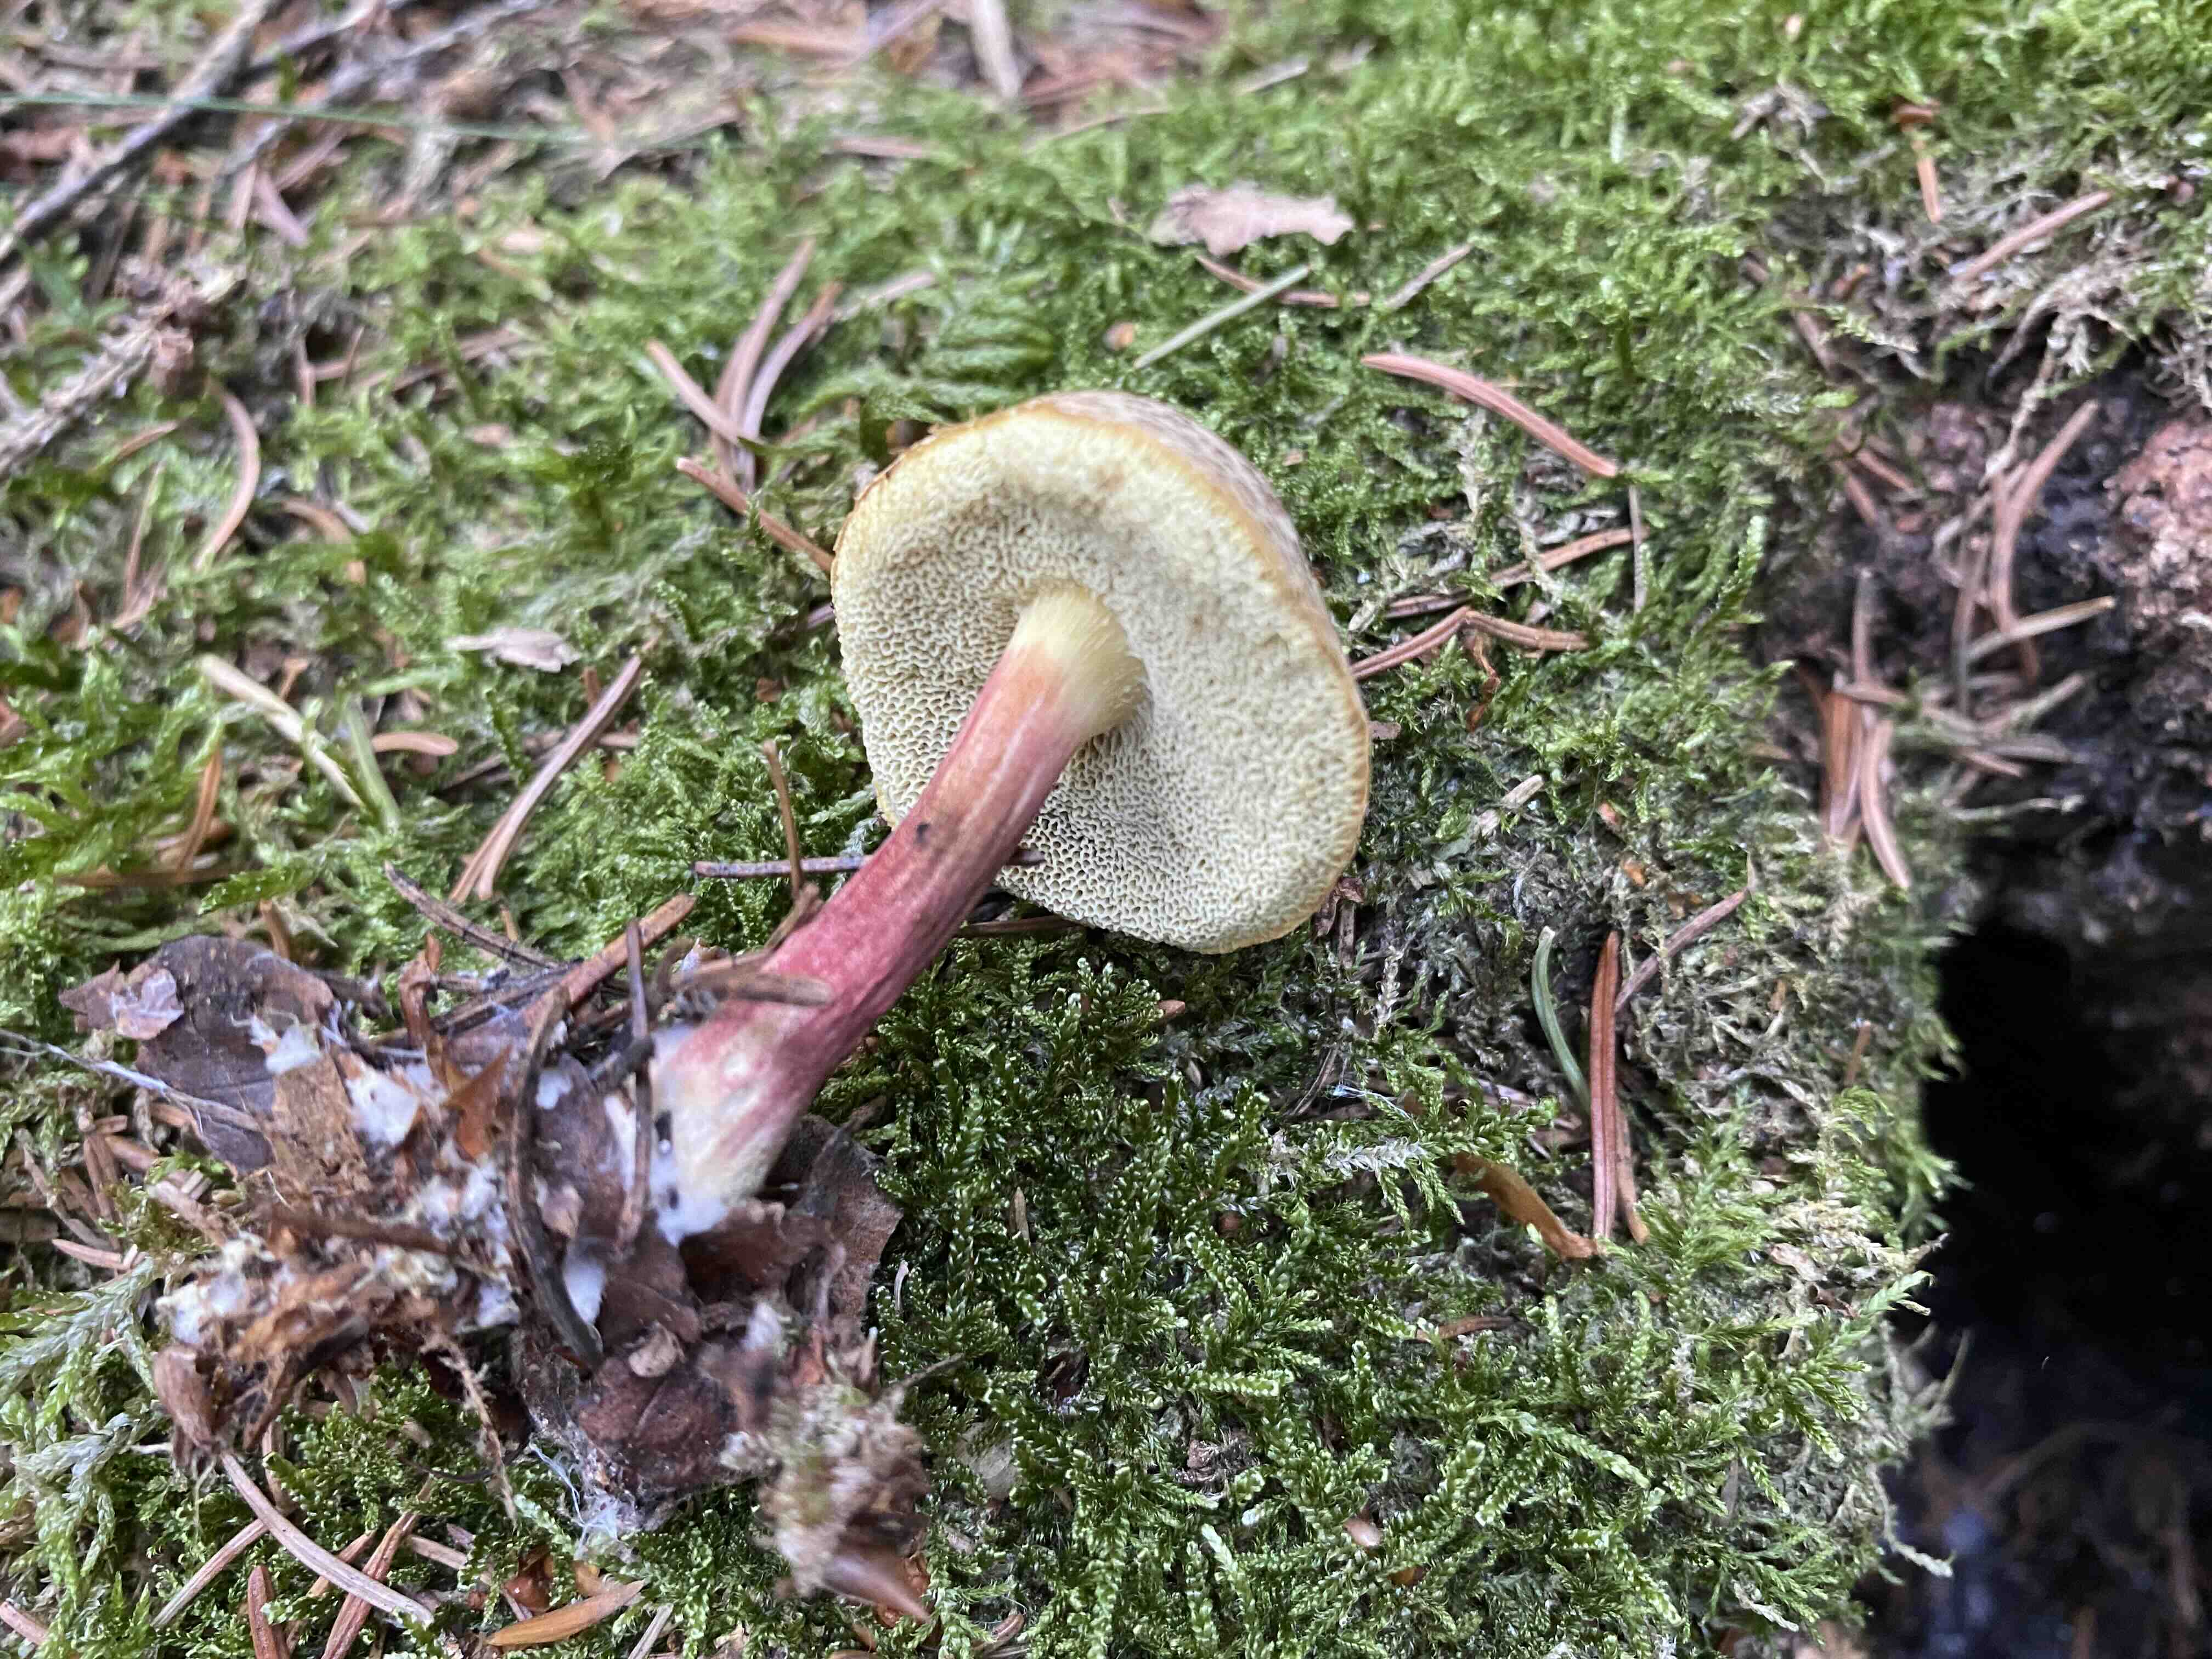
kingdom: Fungi
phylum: Basidiomycota
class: Agaricomycetes
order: Boletales
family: Boletaceae
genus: Xerocomellus
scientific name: Xerocomellus chrysenteron
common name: rødsprukken rørhat
